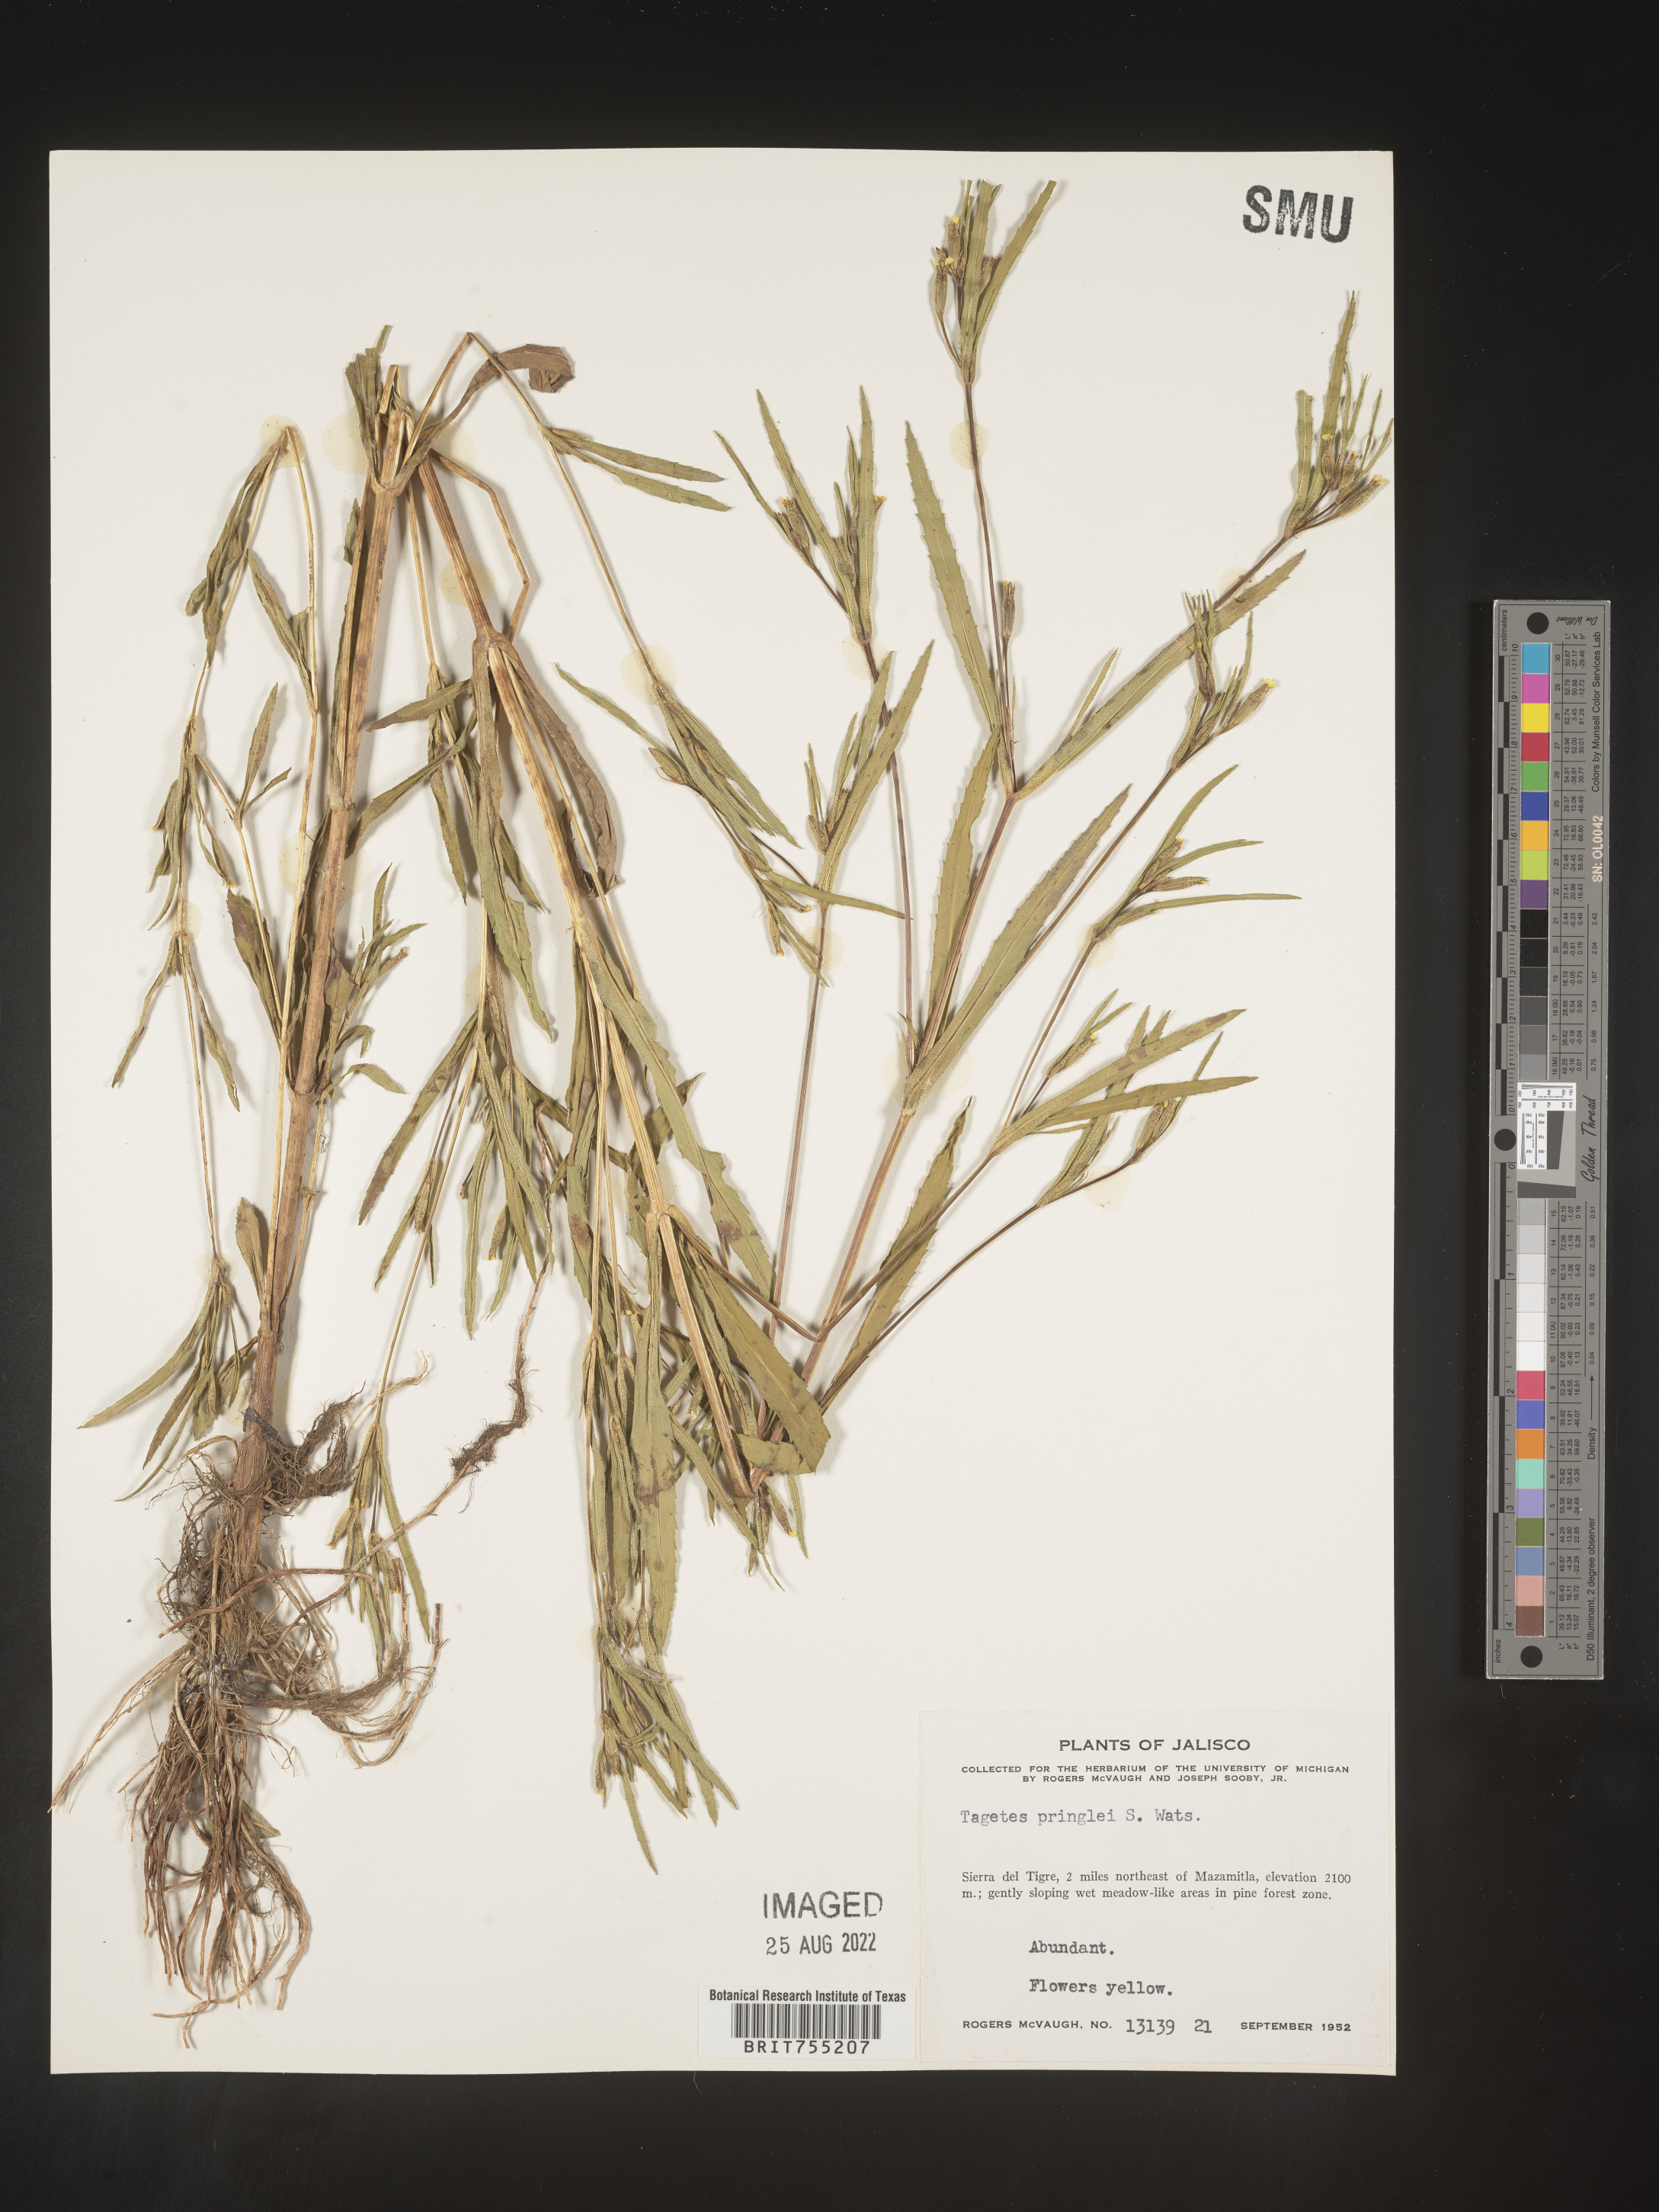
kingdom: Plantae
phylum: Tracheophyta
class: Magnoliopsida
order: Asterales
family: Asteraceae
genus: Tagetes
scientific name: Tagetes
